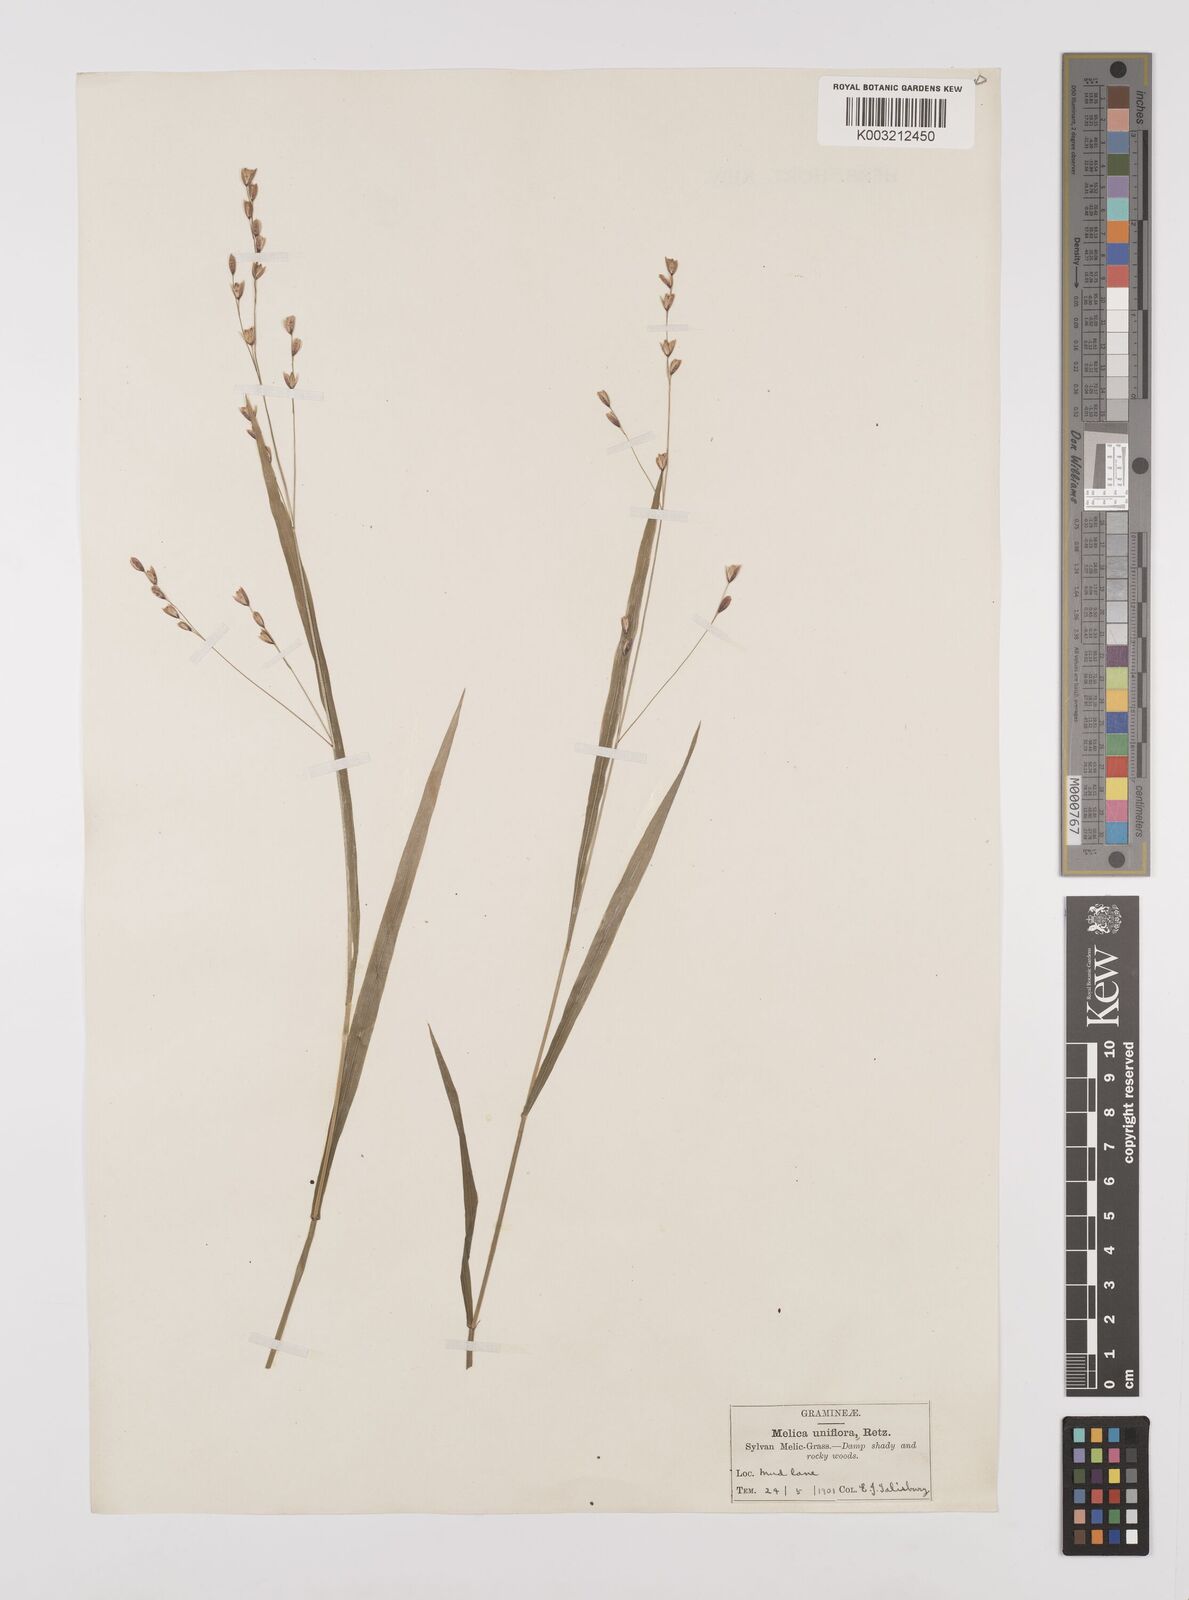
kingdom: Plantae
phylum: Tracheophyta
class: Liliopsida
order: Poales
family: Poaceae
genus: Melica
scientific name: Melica uniflora
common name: Wood melick
